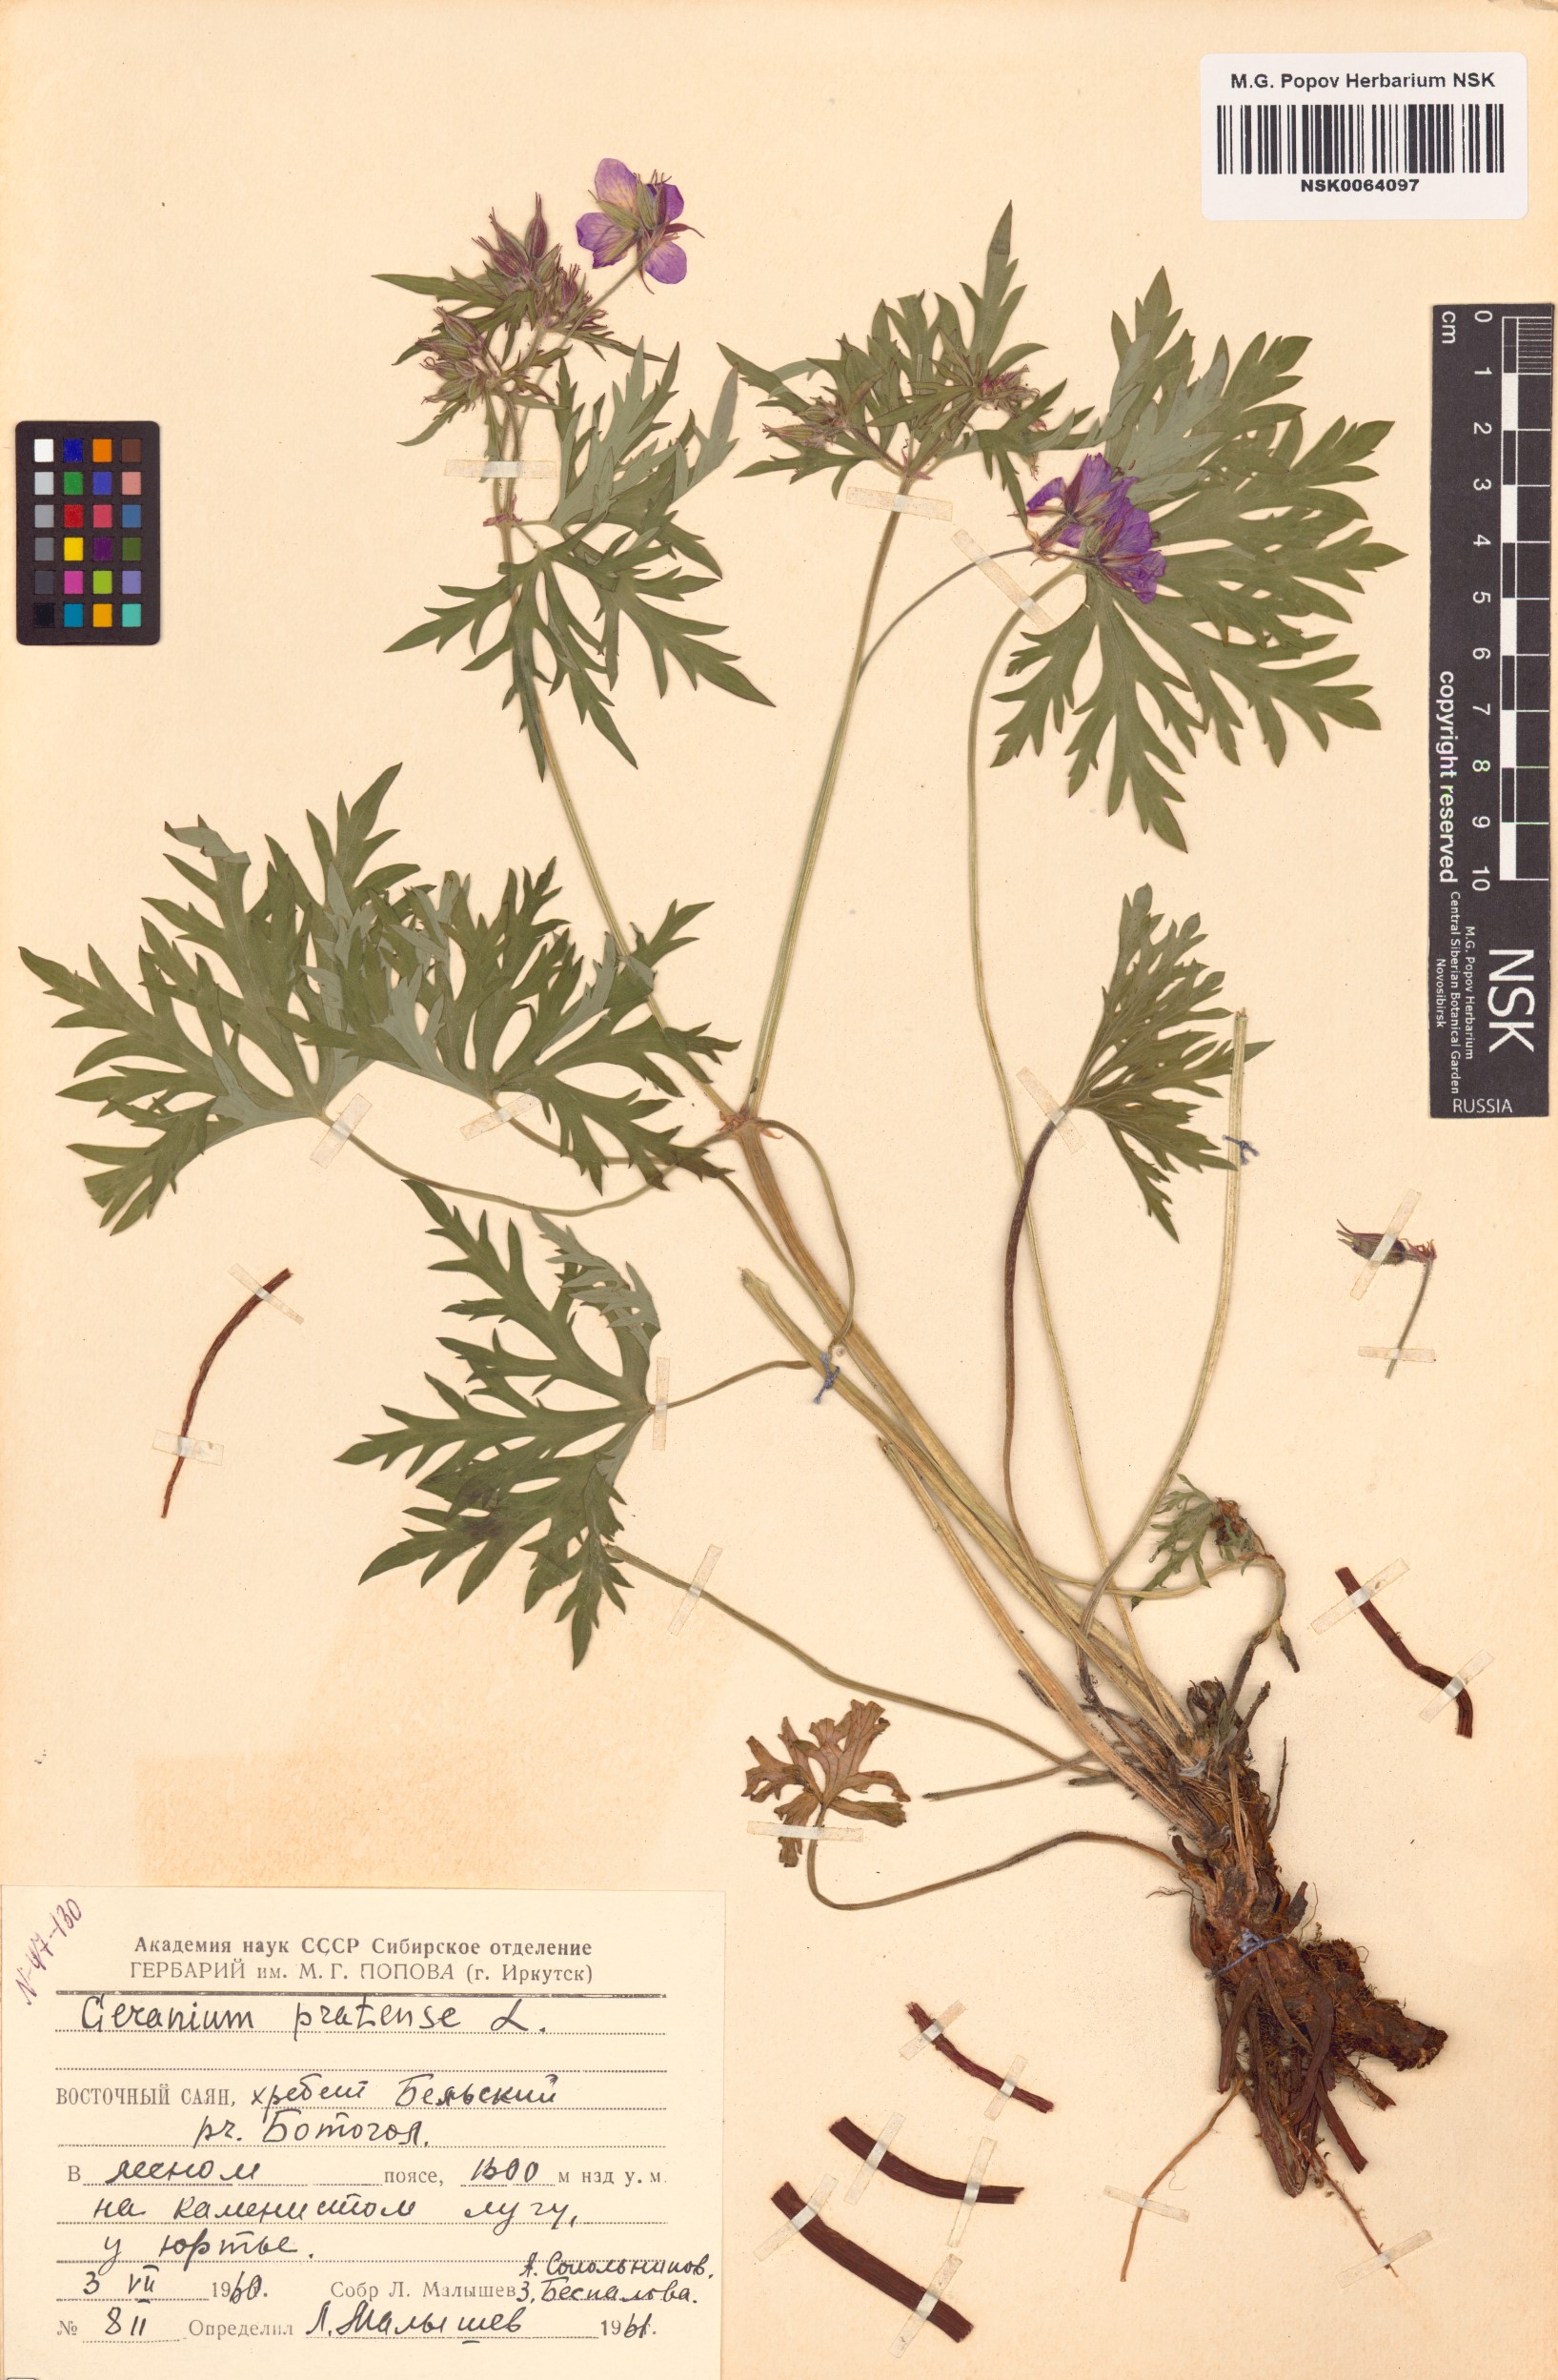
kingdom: Plantae
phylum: Tracheophyta
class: Magnoliopsida
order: Geraniales
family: Geraniaceae
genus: Geranium
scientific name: Geranium pratense
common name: Meadow crane's-bill
